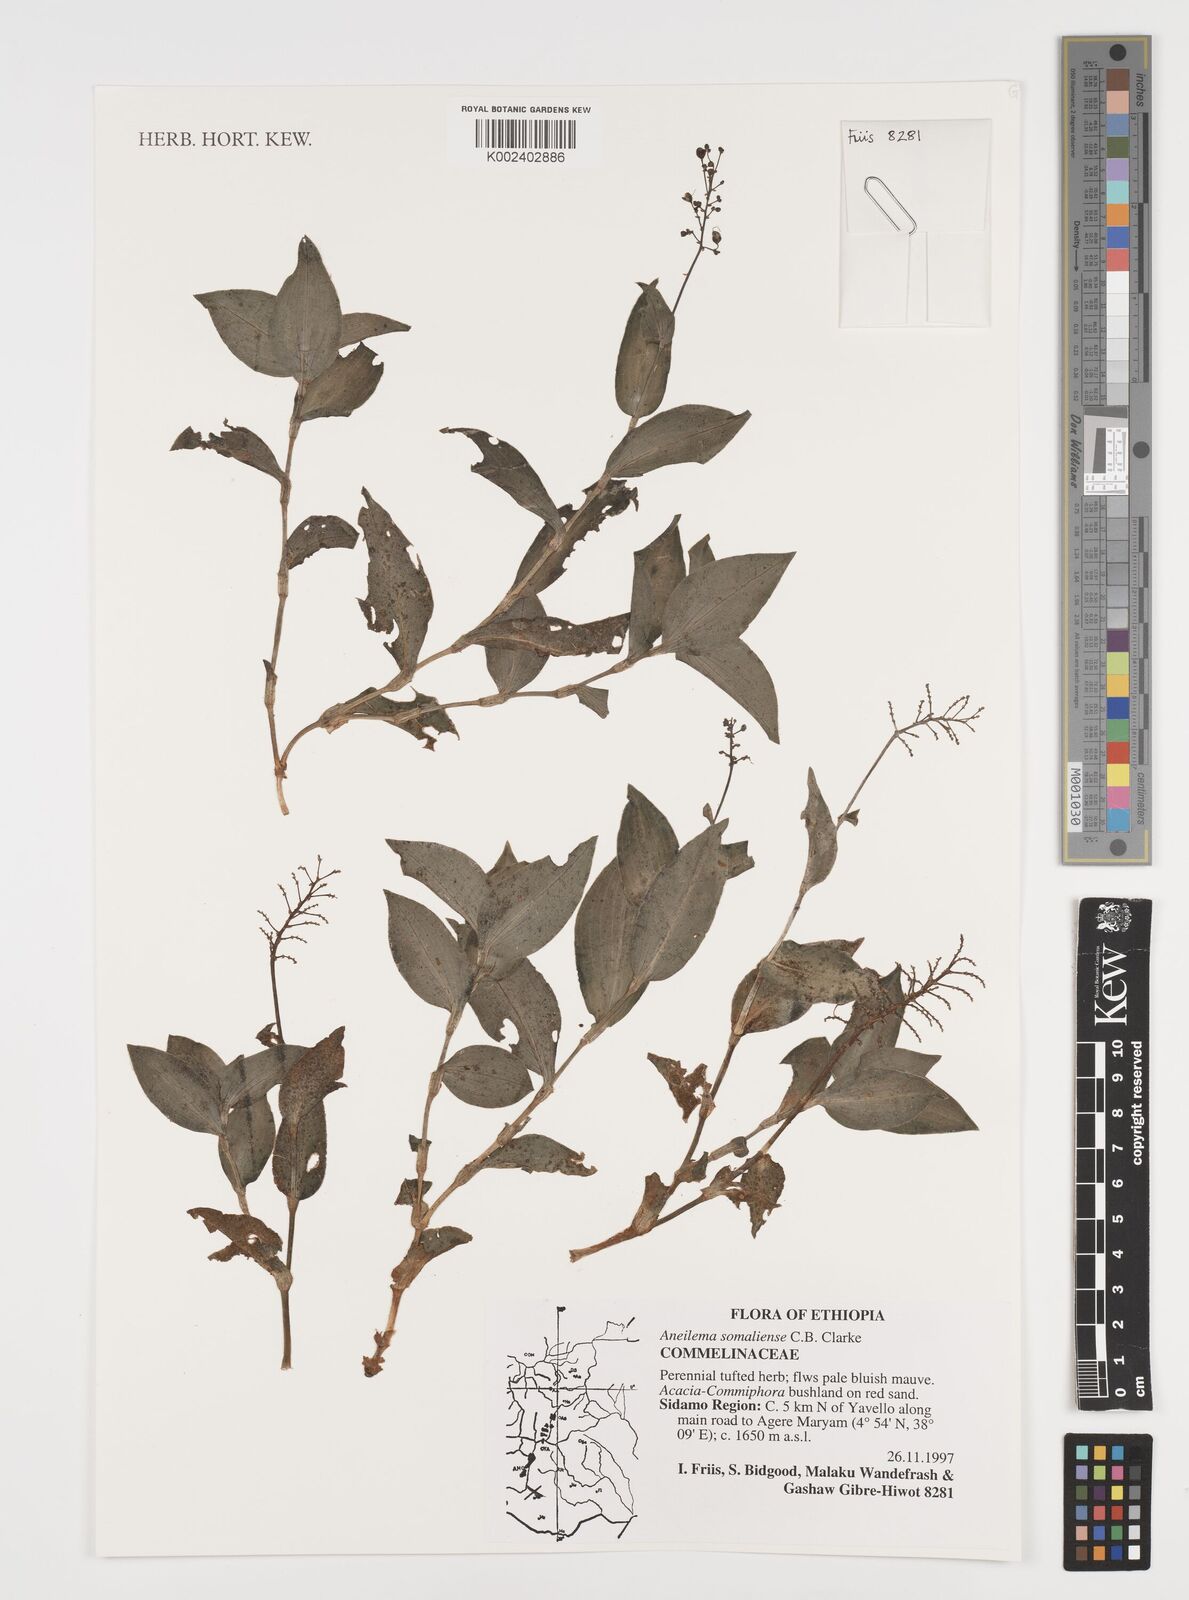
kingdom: Plantae
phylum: Tracheophyta
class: Liliopsida
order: Commelinales
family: Commelinaceae
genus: Aneilema
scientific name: Aneilema somaliense
